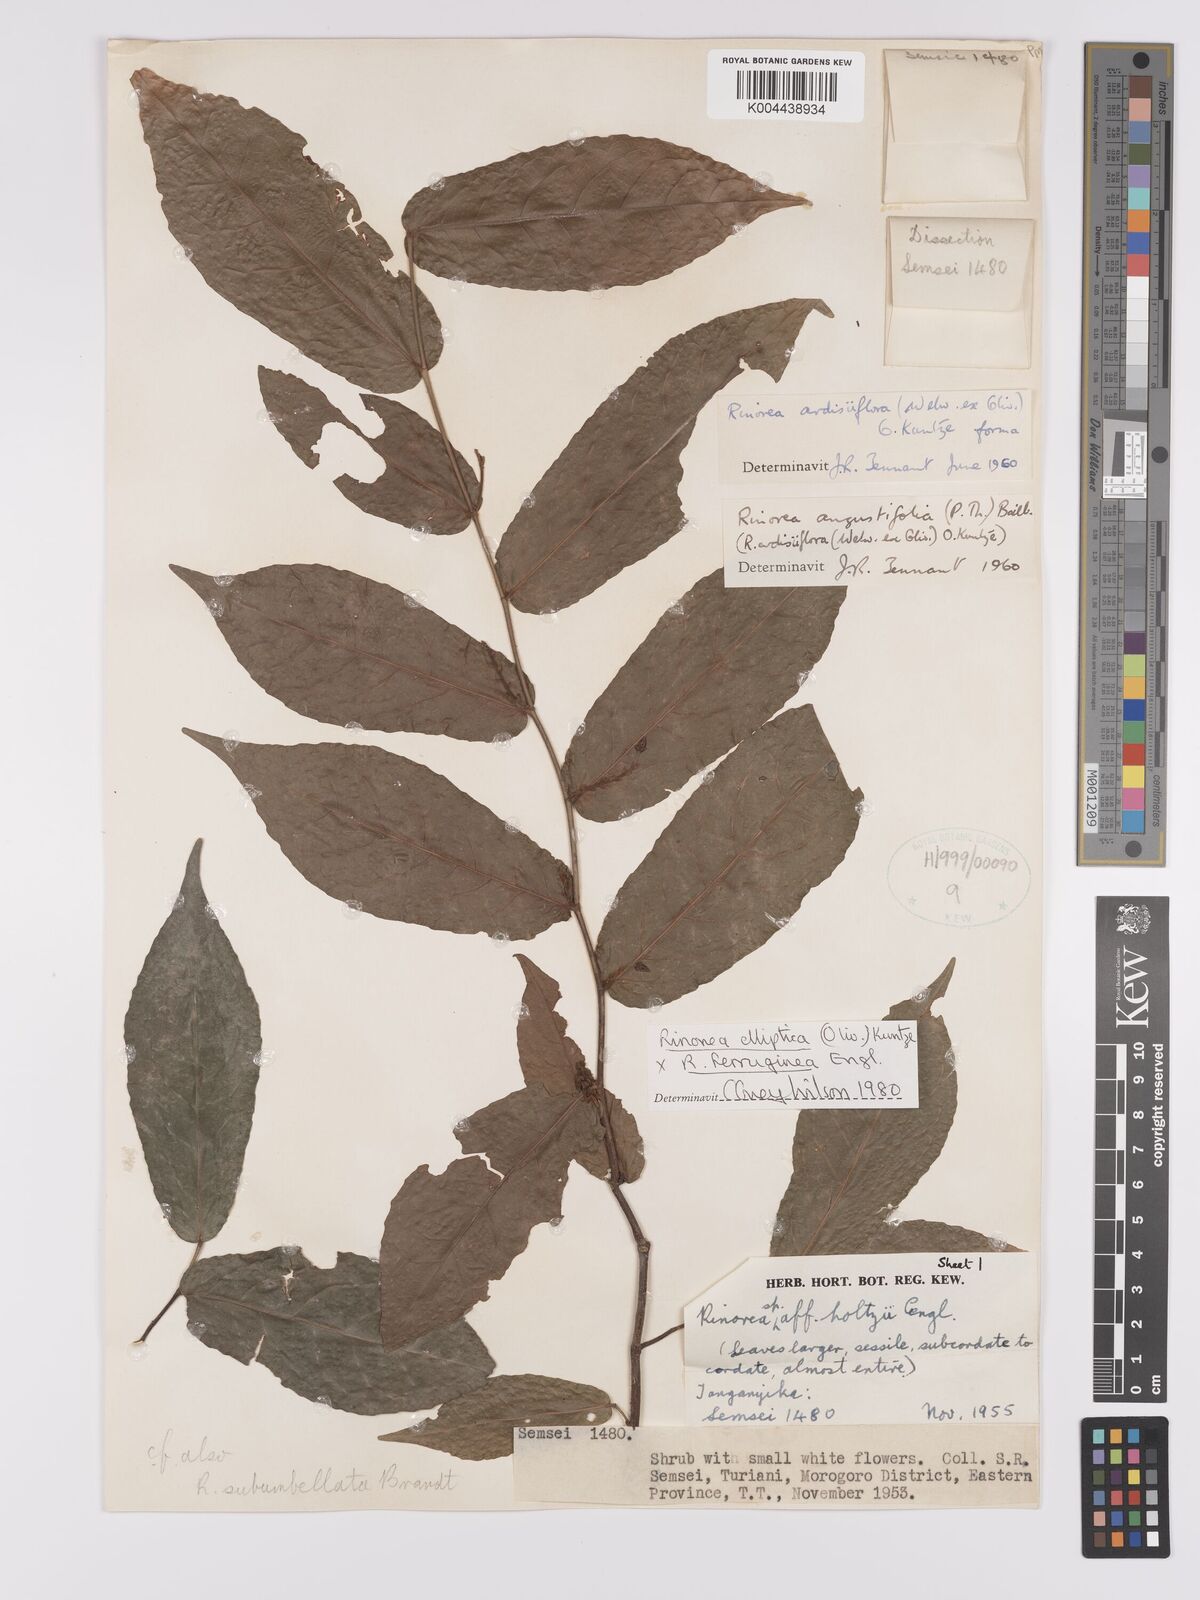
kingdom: Plantae
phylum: Tracheophyta
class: Magnoliopsida
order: Malpighiales
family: Violaceae
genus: Rinorea
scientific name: Rinorea angustifolia
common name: White violet-bush
